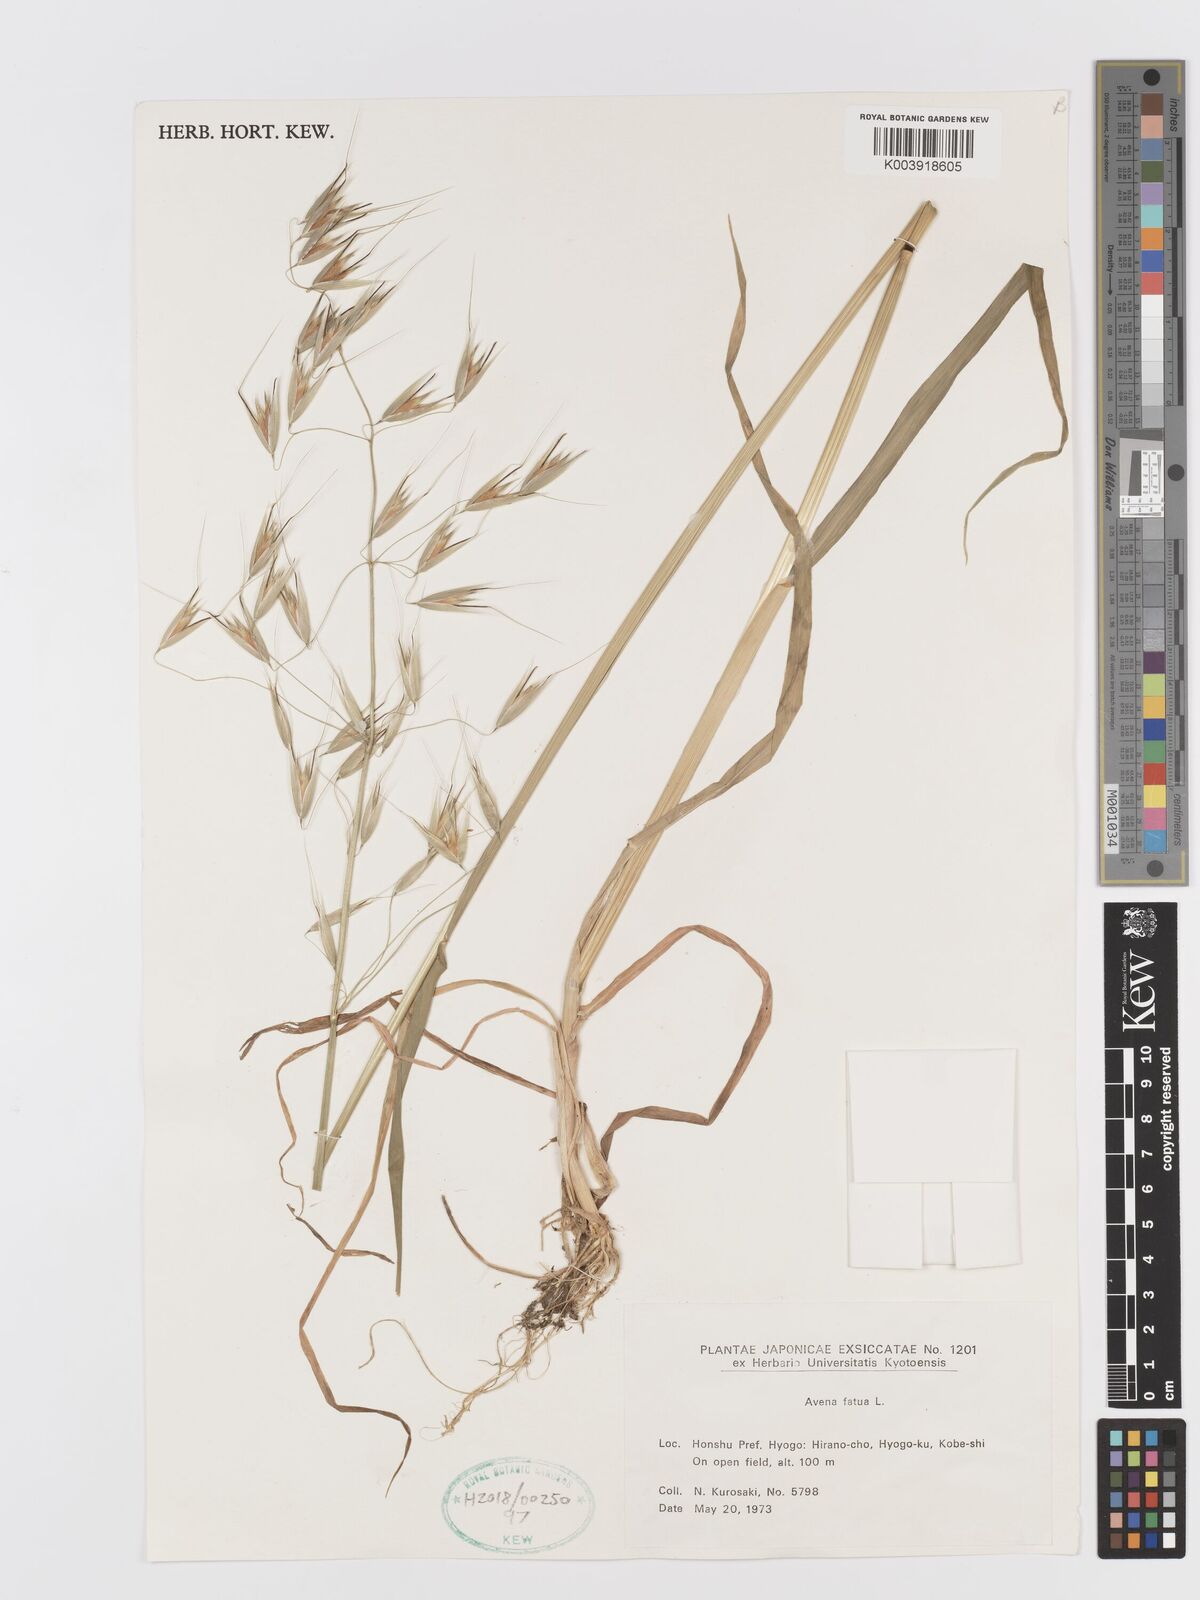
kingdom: Plantae
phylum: Tracheophyta
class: Liliopsida
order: Poales
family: Poaceae
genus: Avena
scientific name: Avena fatua
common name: Wild oat
